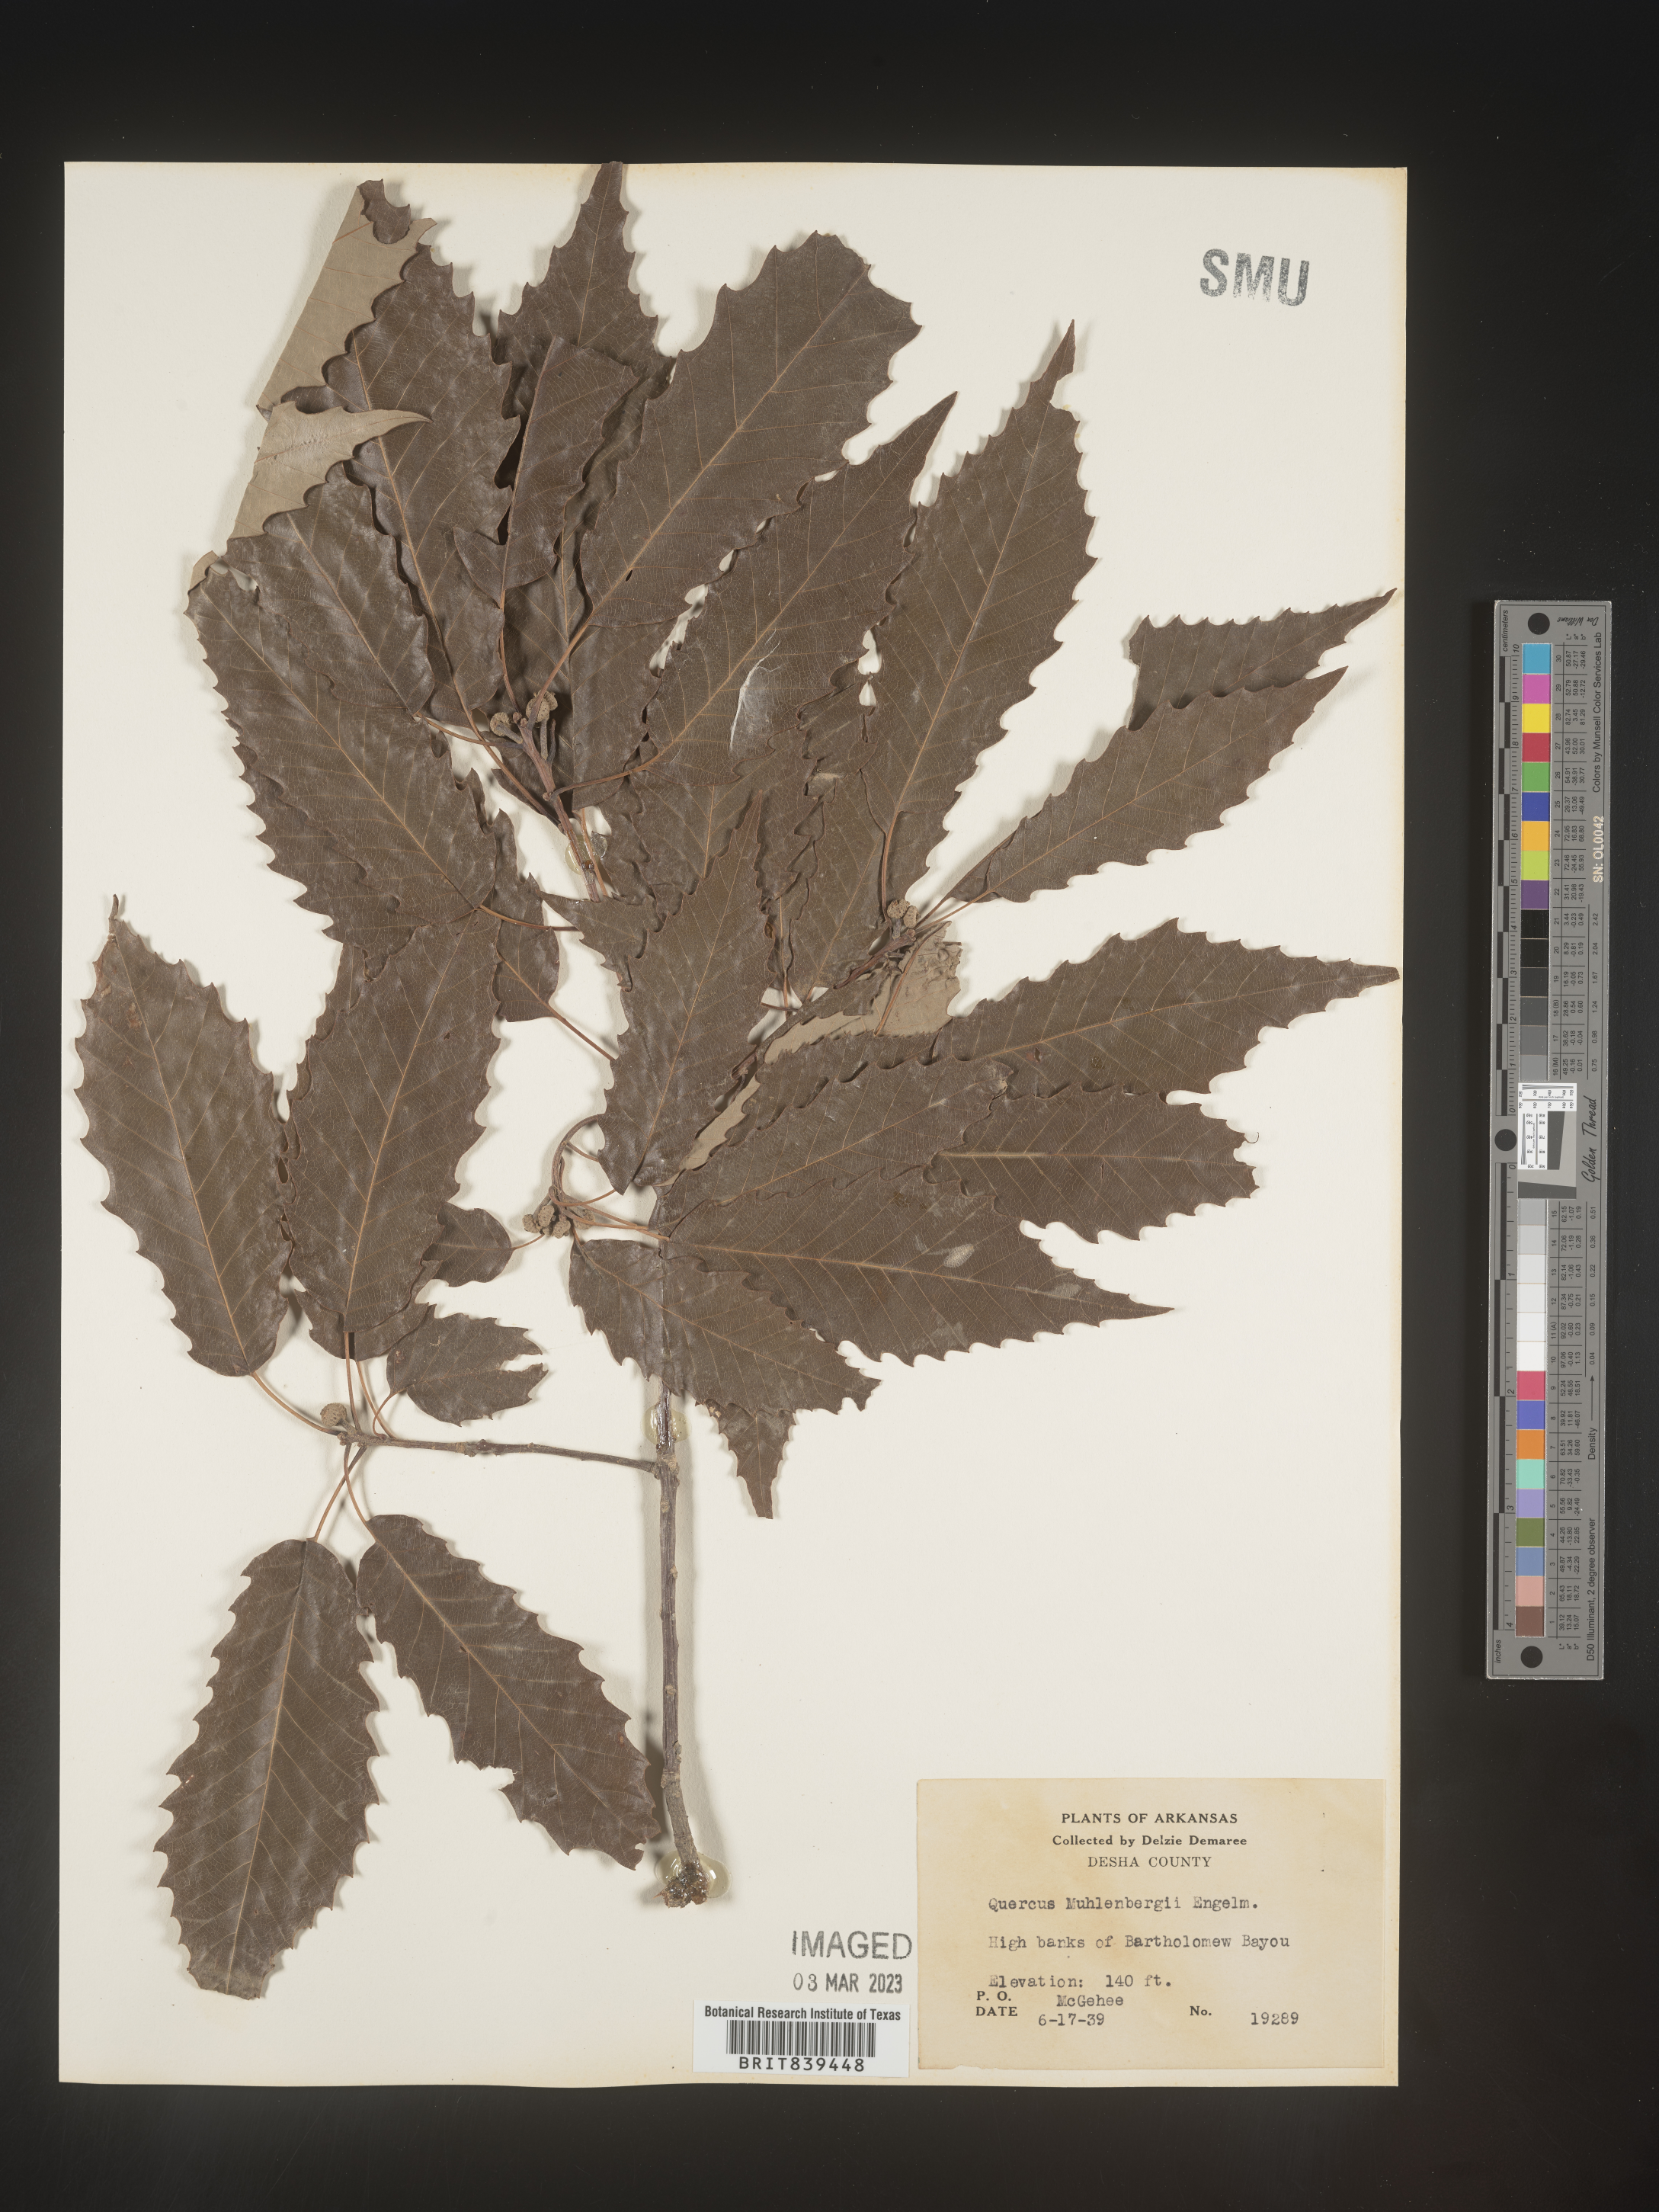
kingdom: Plantae
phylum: Tracheophyta
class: Magnoliopsida
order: Fagales
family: Fagaceae
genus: Quercus
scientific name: Quercus muehlenbergii
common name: Chinkapin oak
